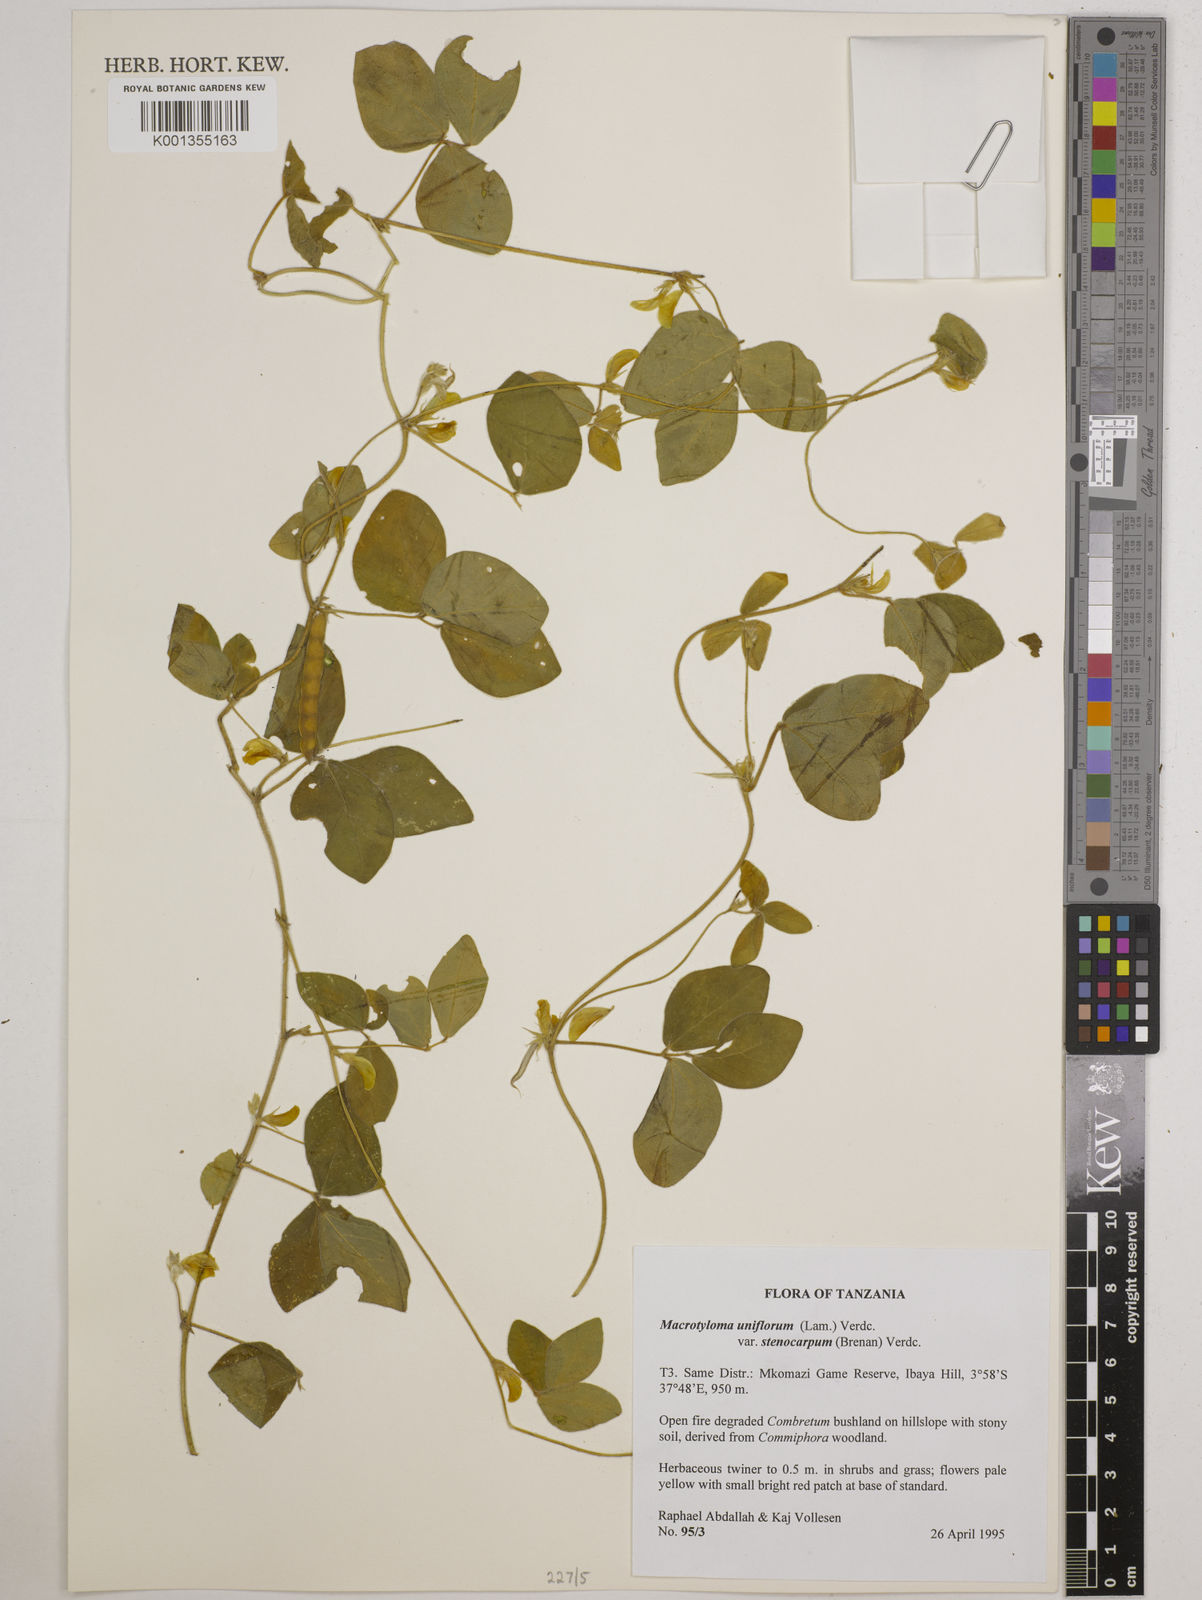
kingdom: Plantae
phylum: Tracheophyta
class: Magnoliopsida
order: Fabales
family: Fabaceae
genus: Macrotyloma
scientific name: Macrotyloma
